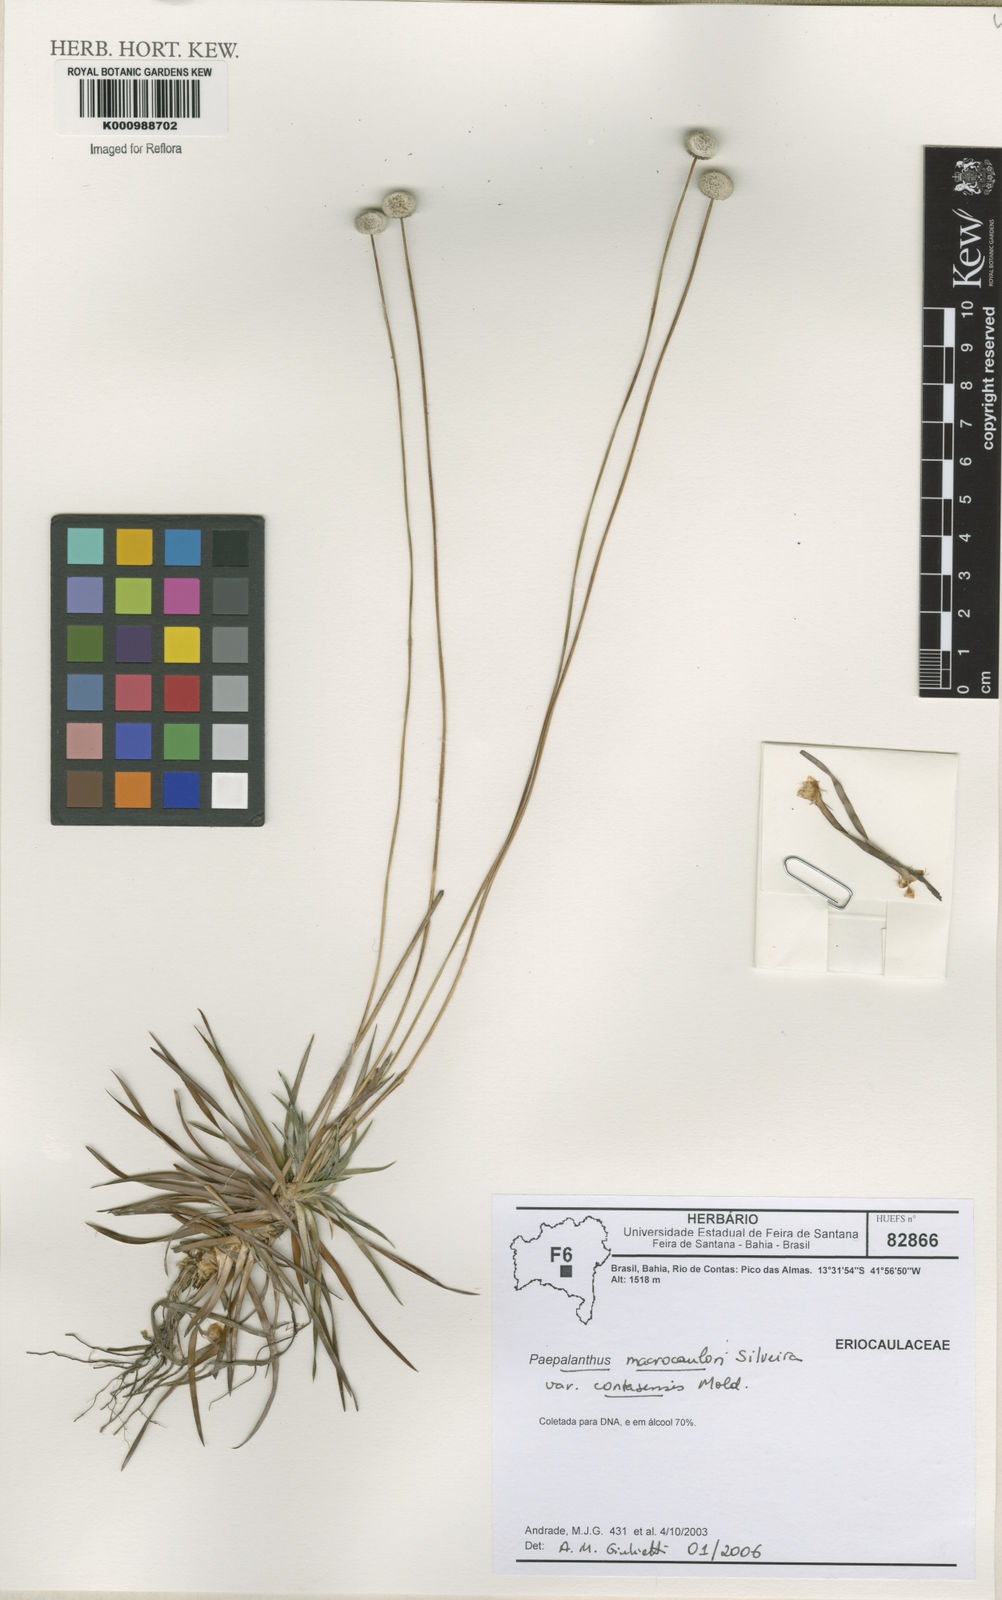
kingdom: Plantae
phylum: Tracheophyta
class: Liliopsida
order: Poales
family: Eriocaulaceae
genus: Paepalanthus
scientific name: Paepalanthus macrocaulon
